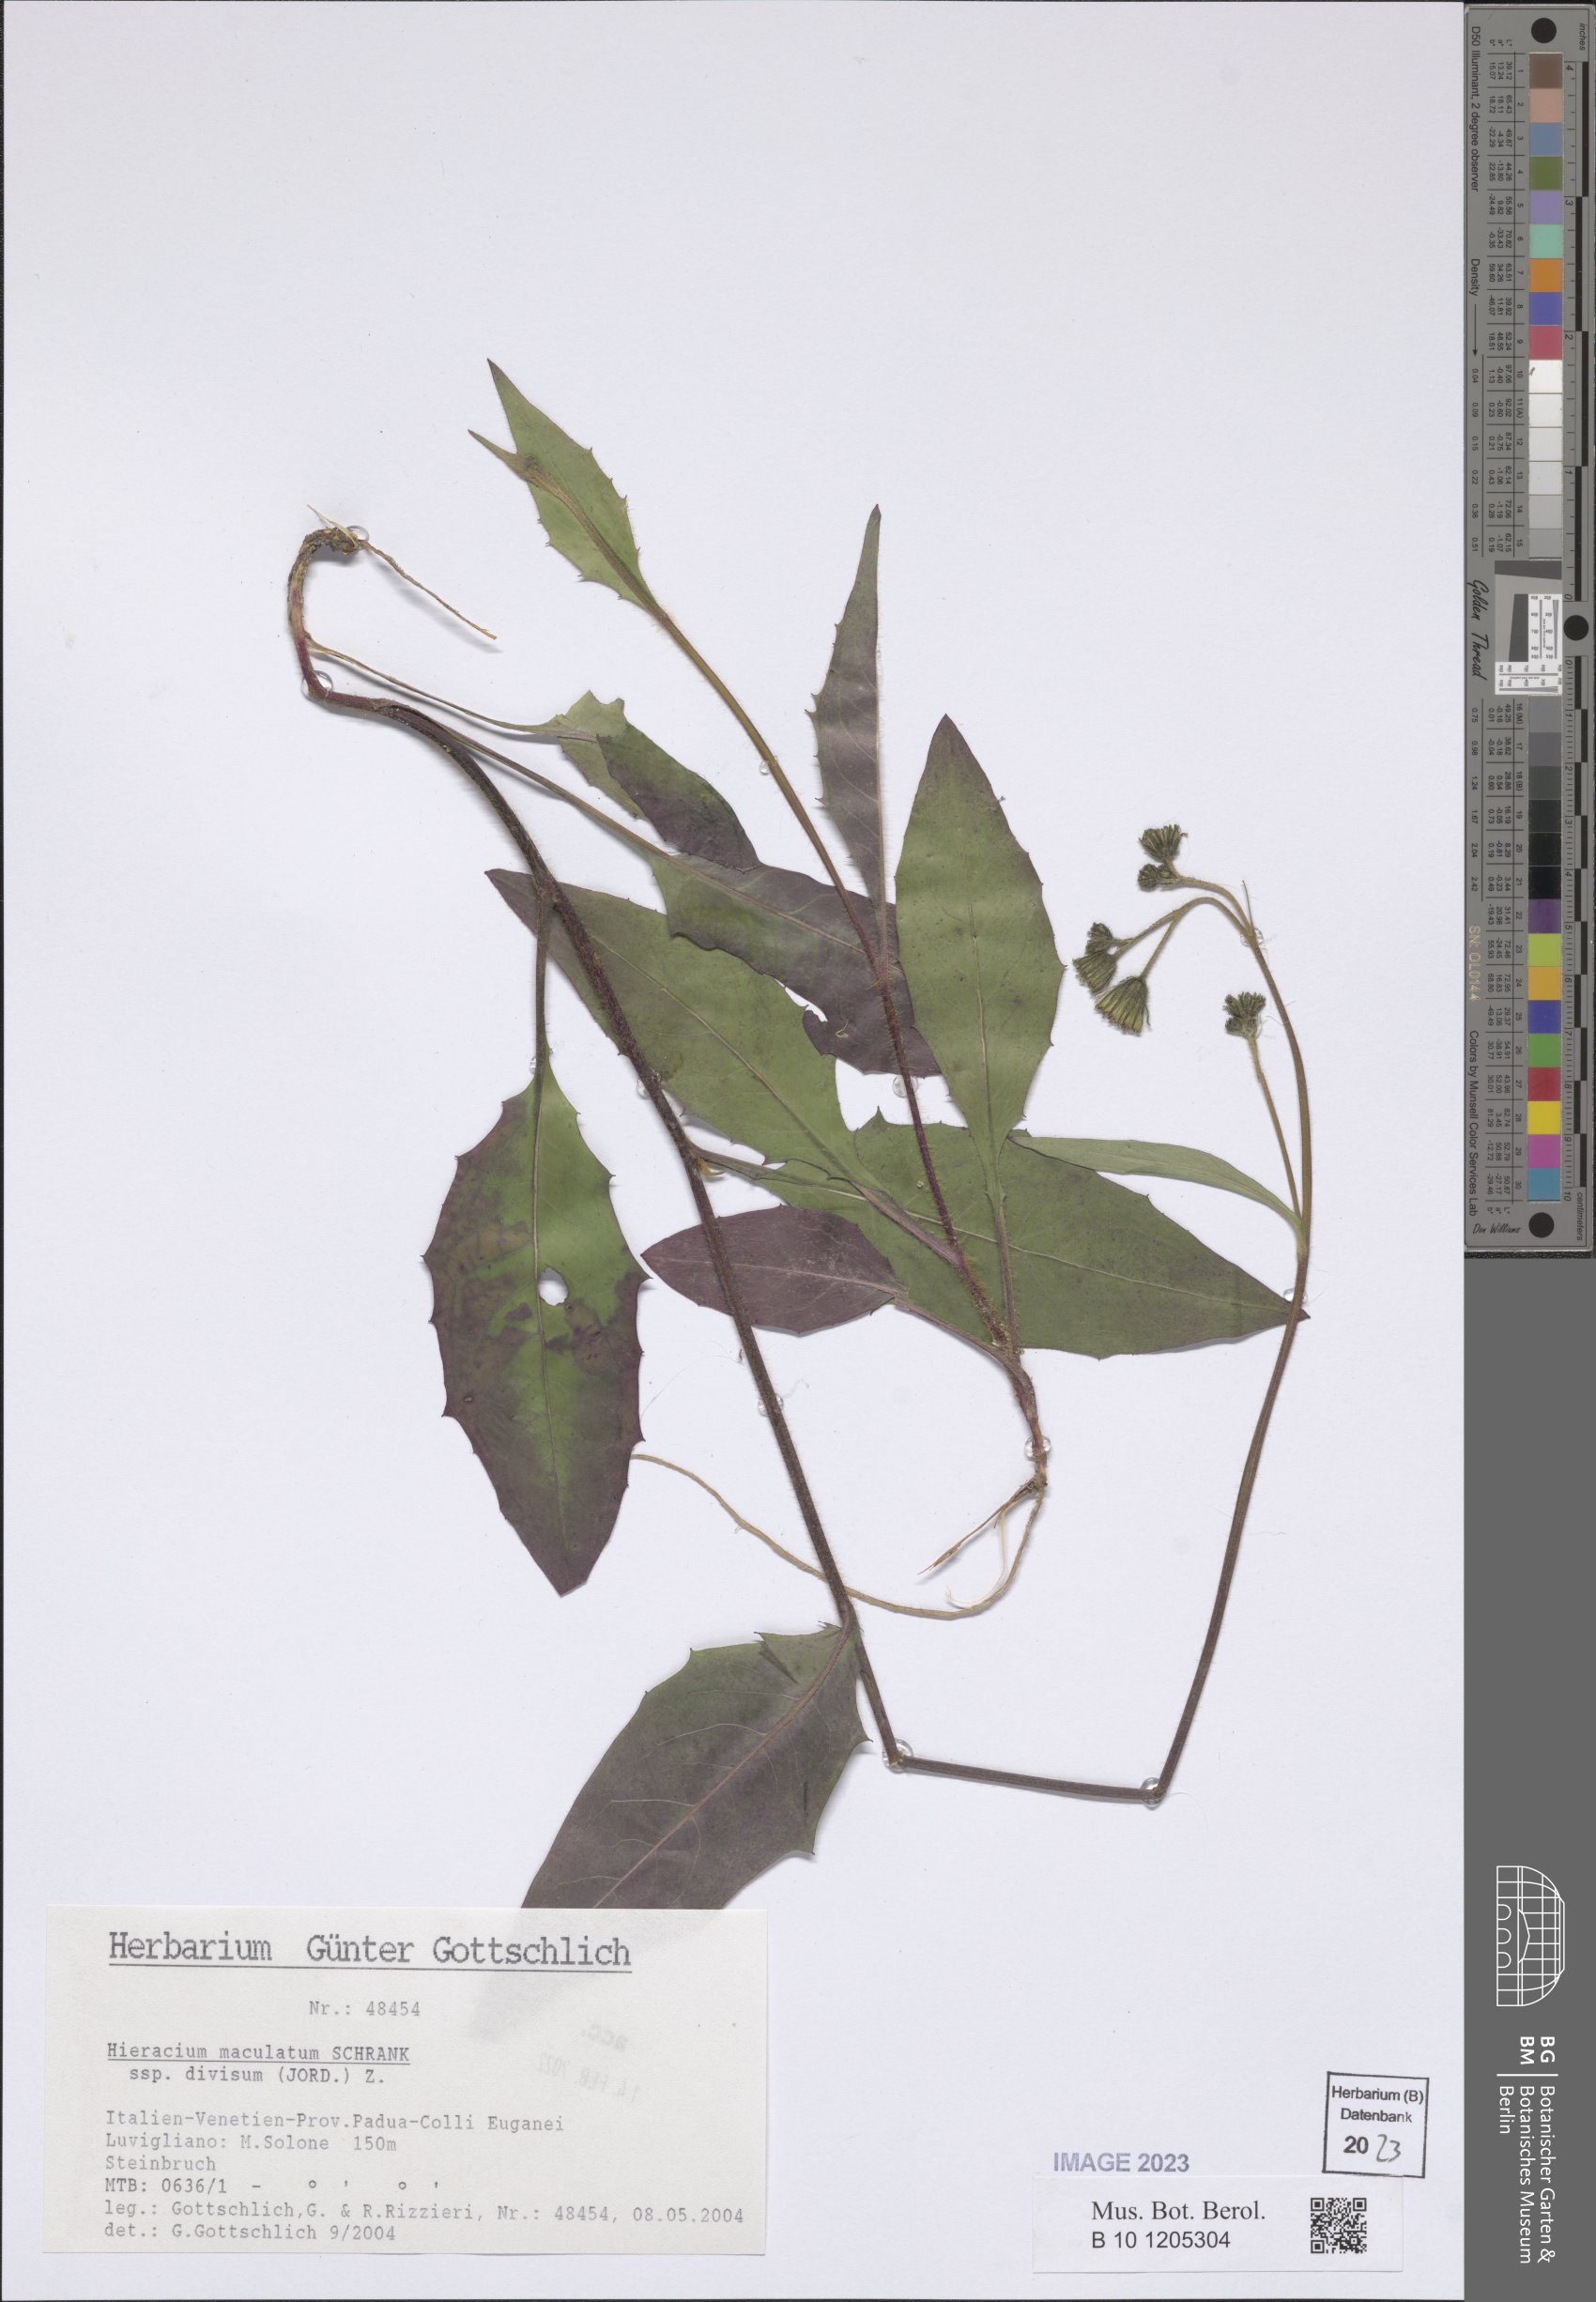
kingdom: Plantae
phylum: Tracheophyta
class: Magnoliopsida
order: Asterales
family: Asteraceae
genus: Hieracium
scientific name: Hieracium maculatum
